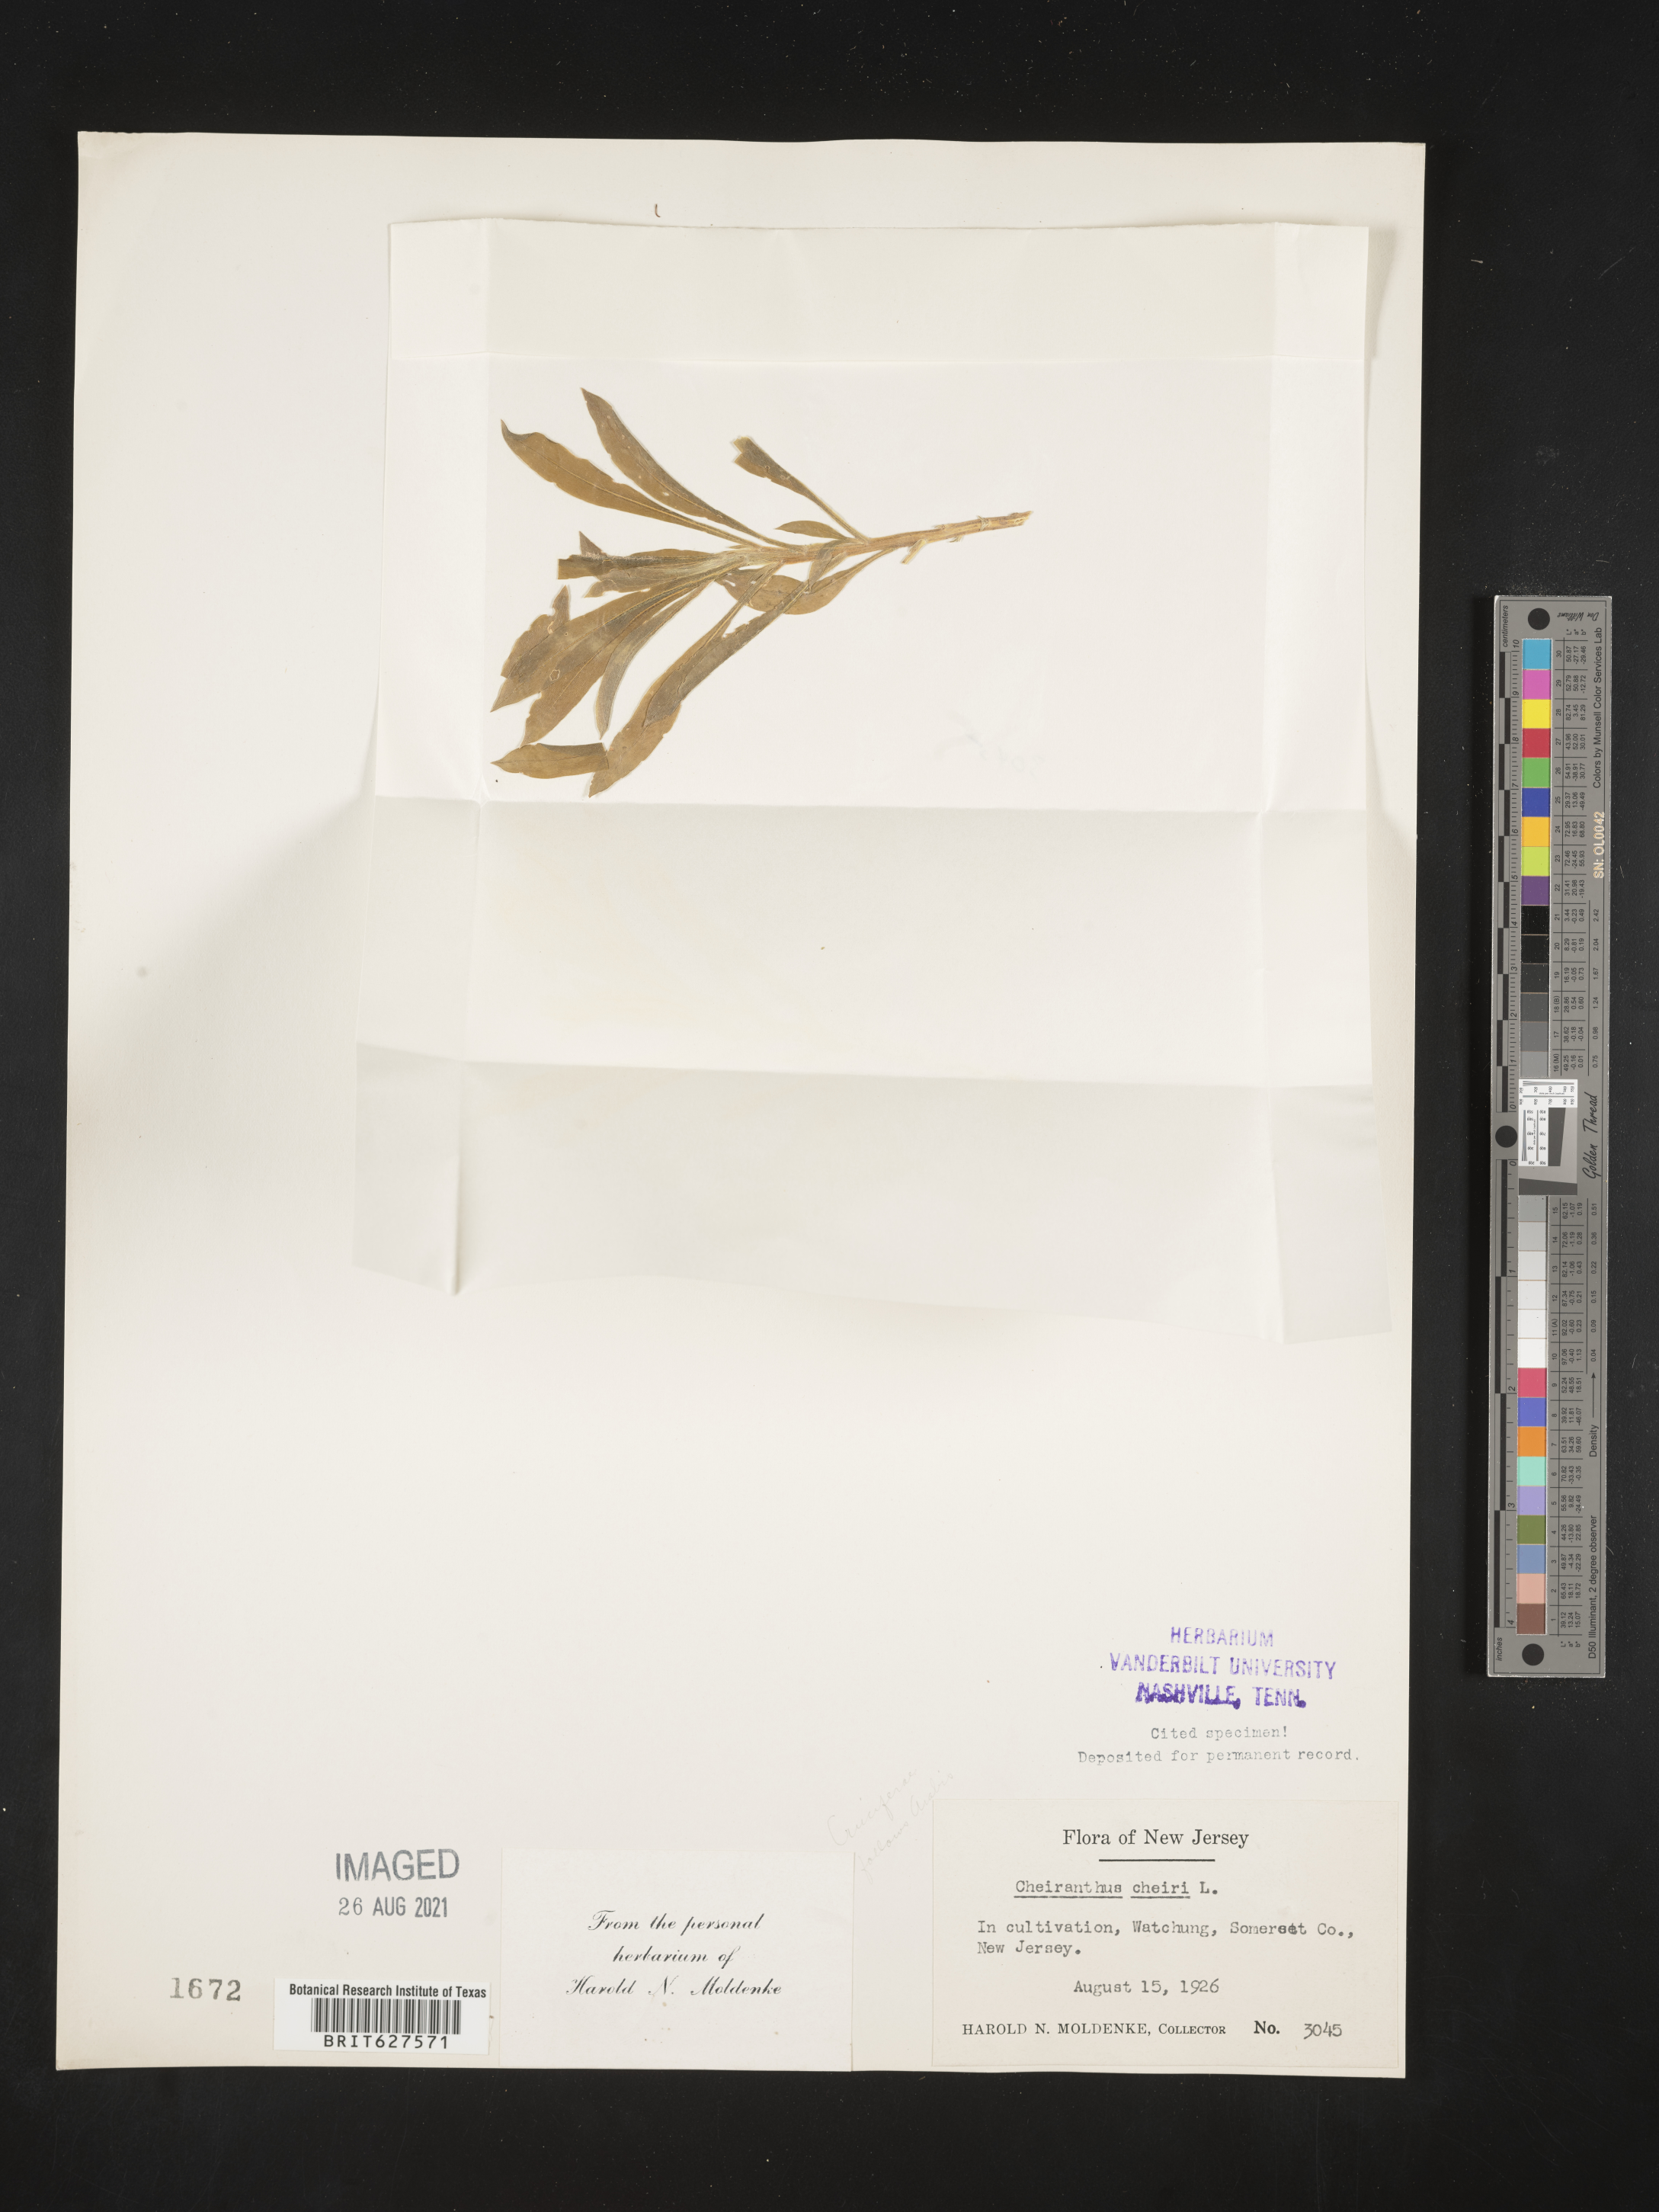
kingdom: Plantae
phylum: Tracheophyta
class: Magnoliopsida
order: Brassicales
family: Brassicaceae
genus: Erysimum
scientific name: Erysimum cheiri
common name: Wallflower
